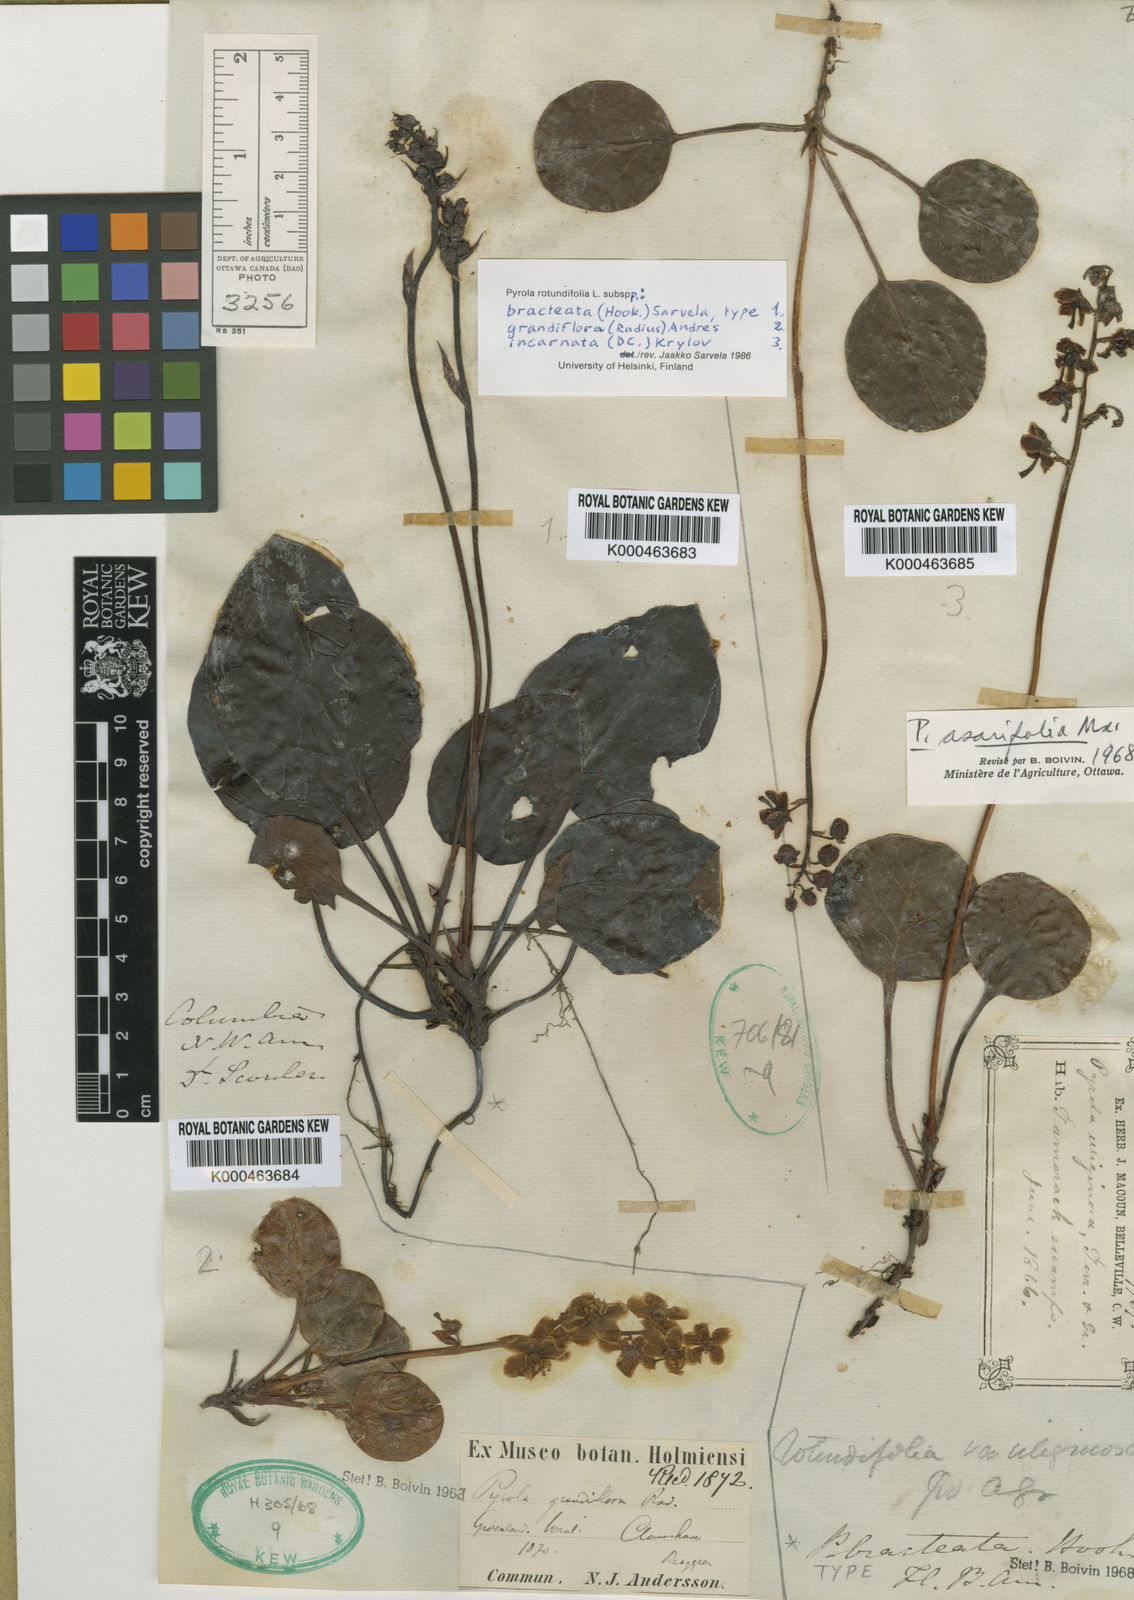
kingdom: Plantae
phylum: Tracheophyta
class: Magnoliopsida
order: Ericales
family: Ericaceae
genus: Pyrola
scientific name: Pyrola asarifolia
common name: Bog wintergreen
